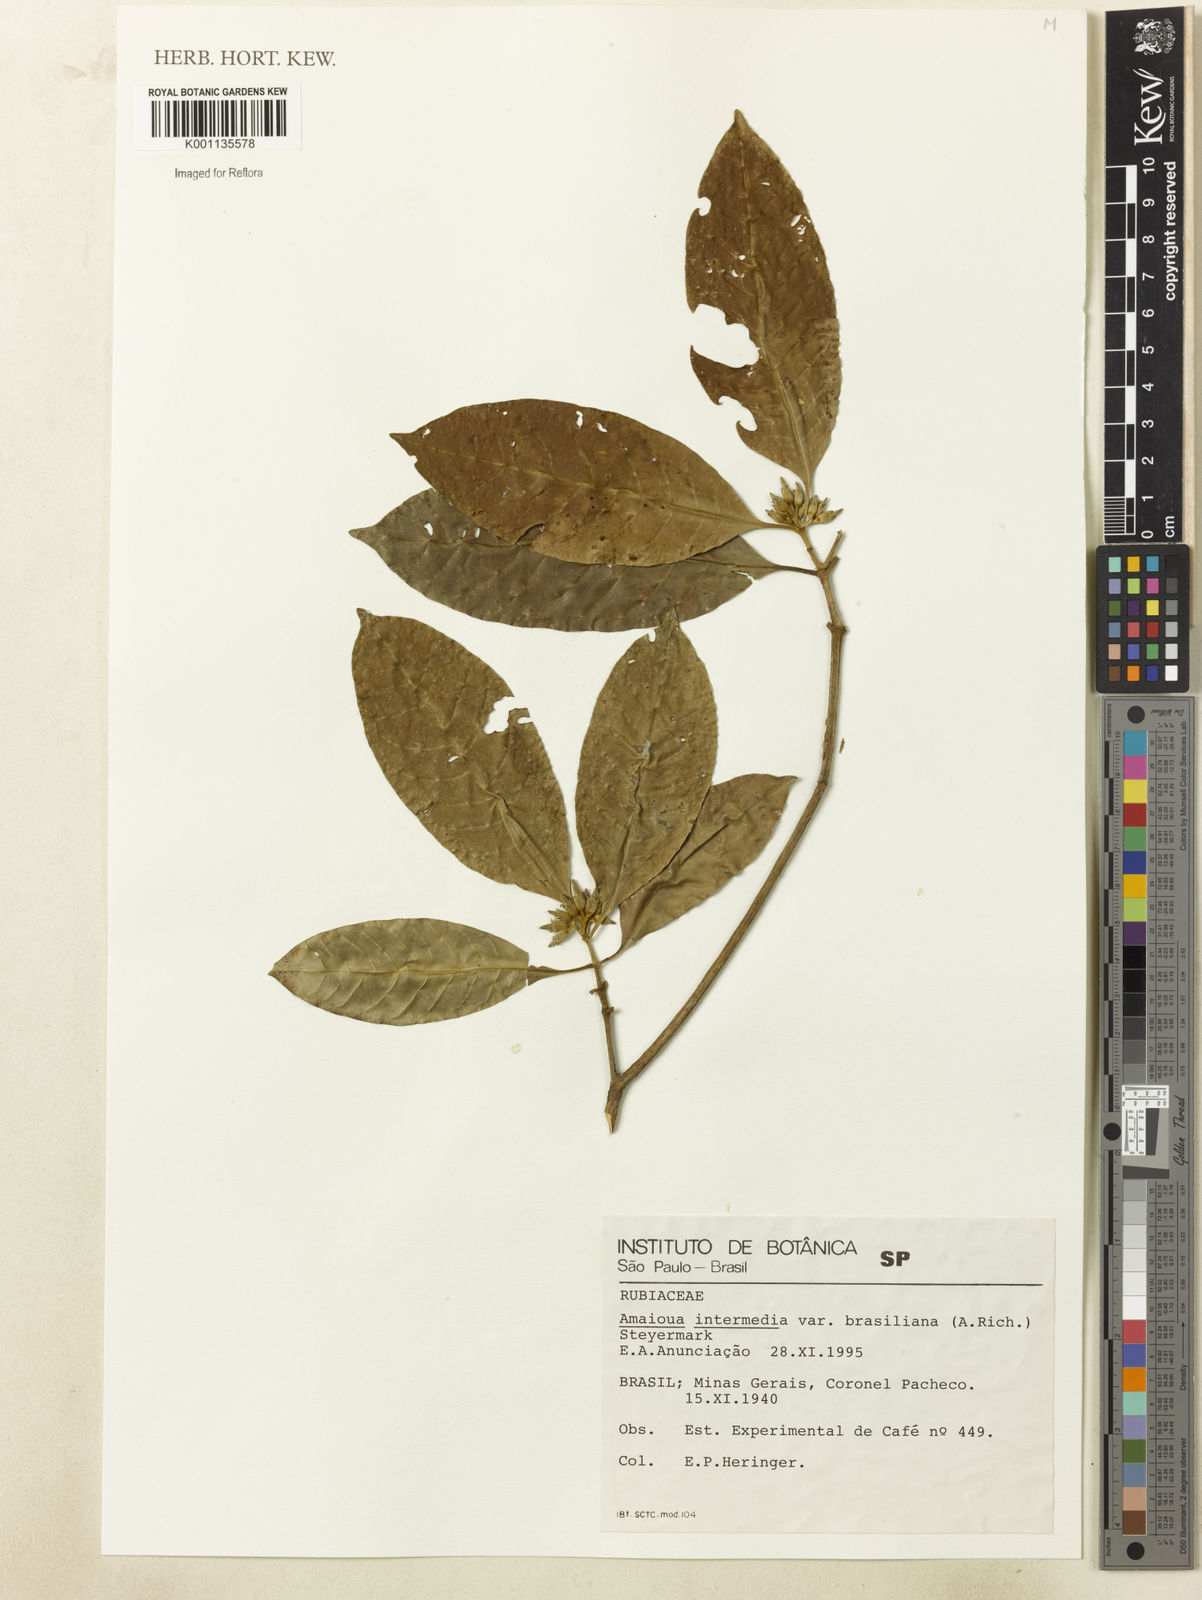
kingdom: Plantae
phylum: Tracheophyta
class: Magnoliopsida
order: Gentianales
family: Rubiaceae
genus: Amaioua
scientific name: Amaioua intermedia
